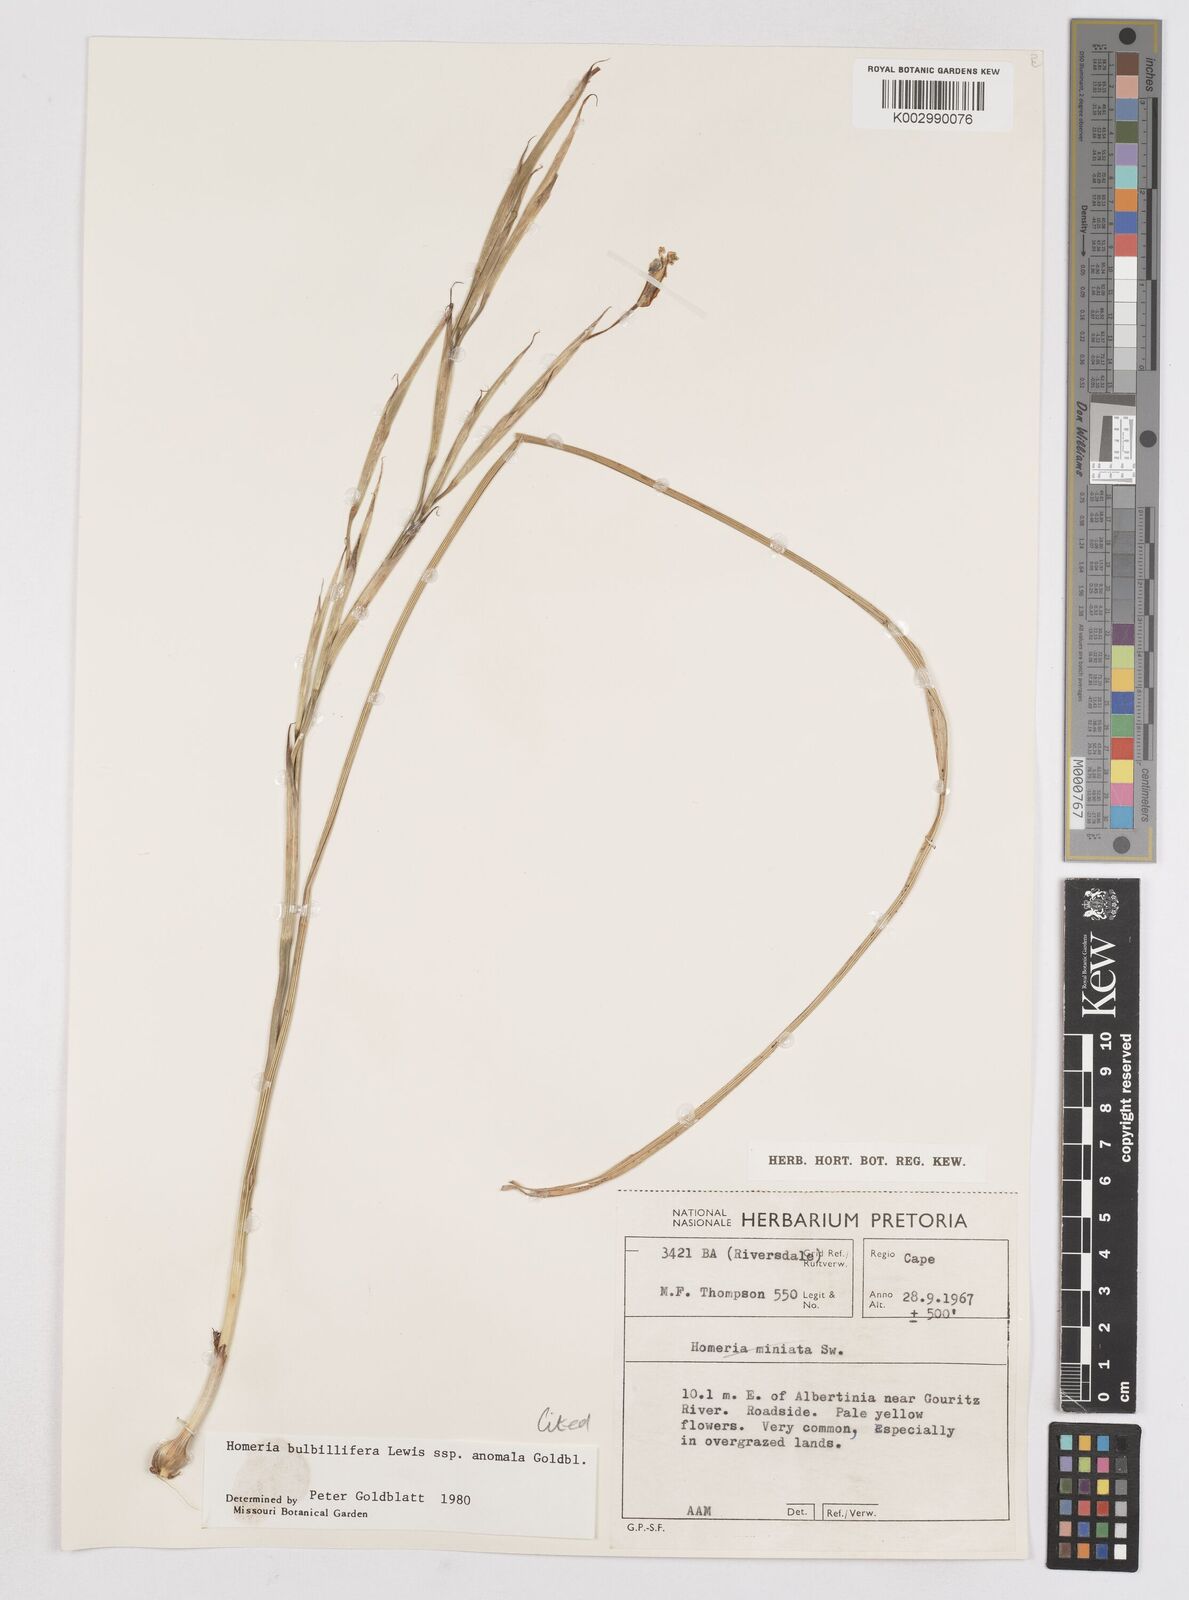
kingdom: Plantae
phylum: Tracheophyta
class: Liliopsida
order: Asparagales
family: Iridaceae
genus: Moraea
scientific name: Moraea bulbillifera
